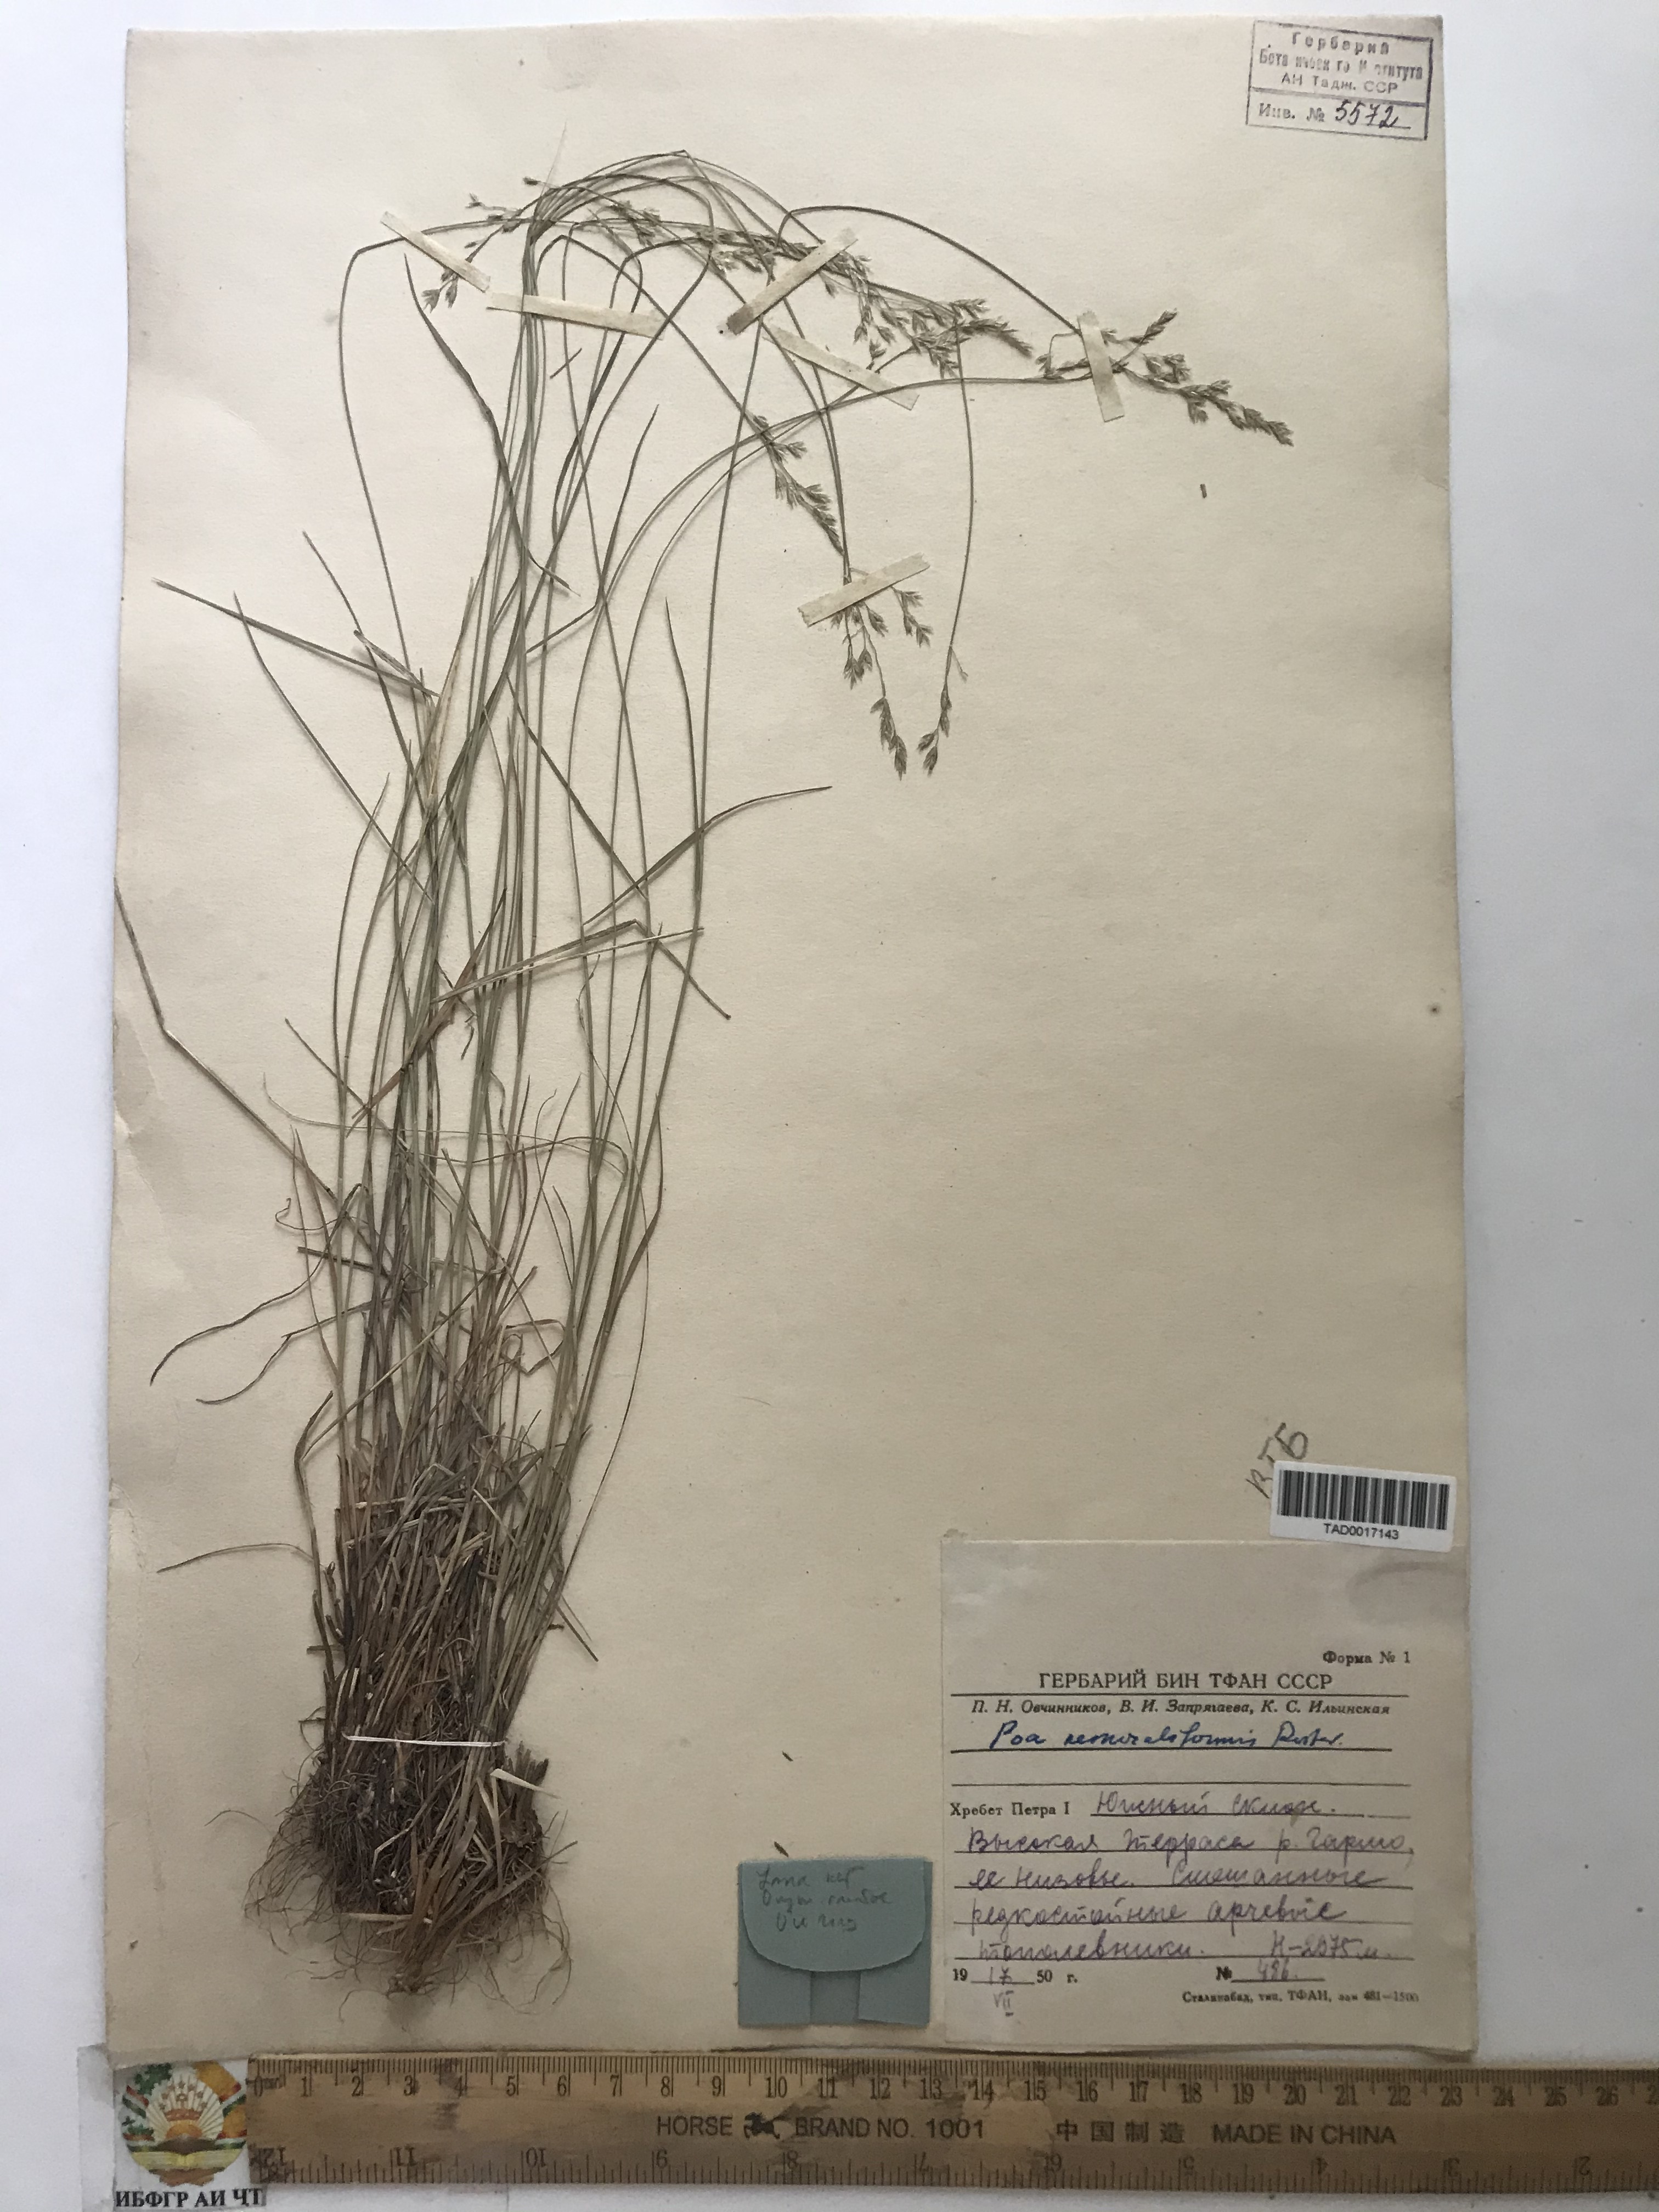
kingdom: Plantae
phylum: Tracheophyta
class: Liliopsida
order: Poales
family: Poaceae
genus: Poa
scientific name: Poa urssulensis
